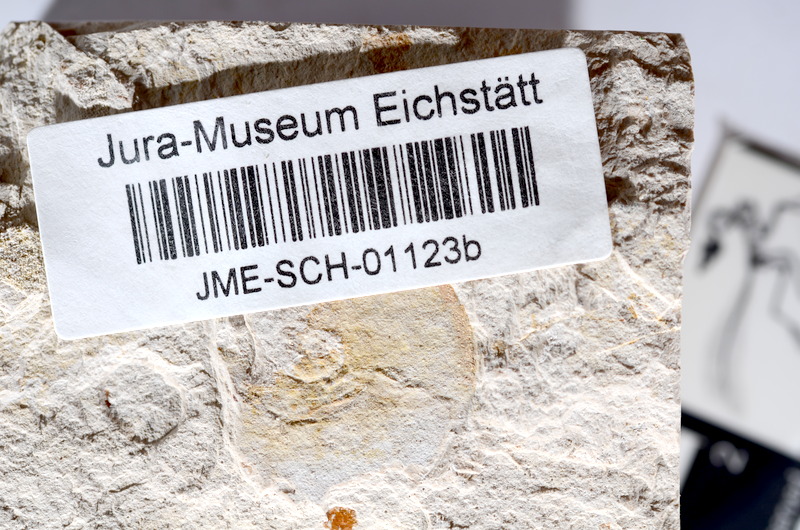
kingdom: Animalia
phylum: Chordata
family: Ascalaboidae
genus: Tharsis
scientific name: Tharsis dubius
